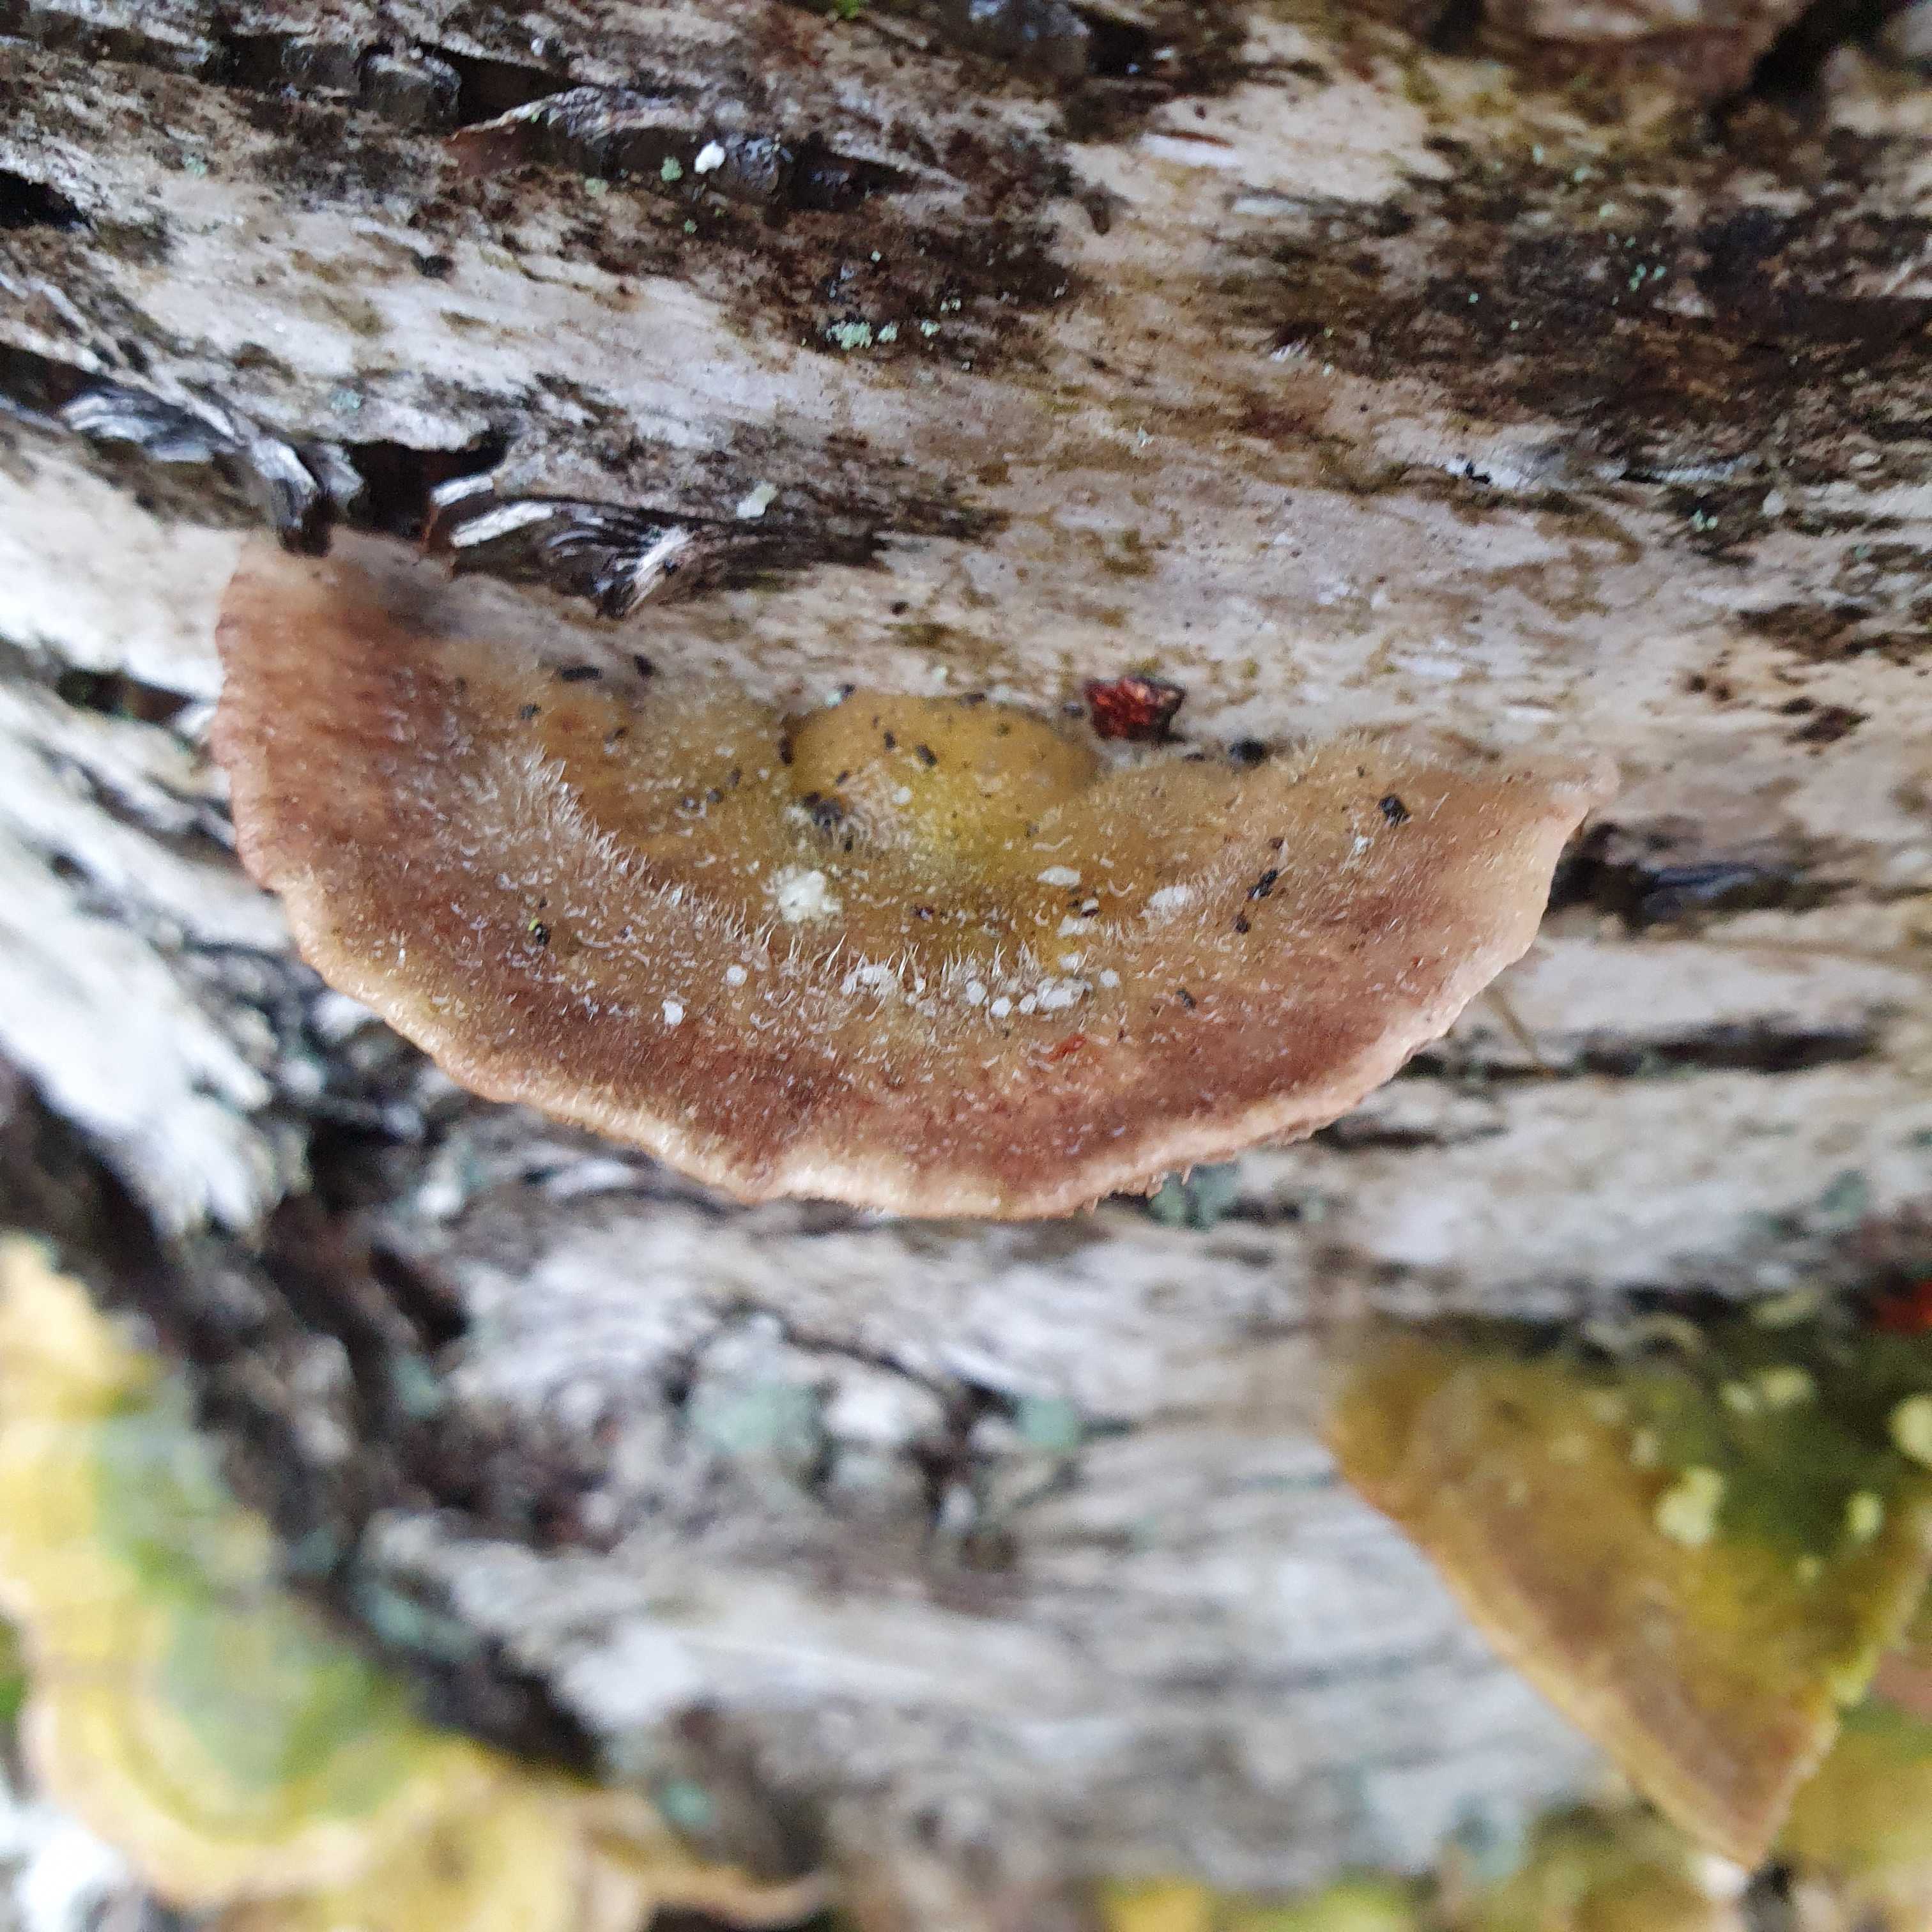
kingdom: Fungi
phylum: Basidiomycota
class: Agaricomycetes
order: Polyporales
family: Polyporaceae
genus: Lenzites
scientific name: Lenzites betulinus
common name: birke-læderporesvamp
